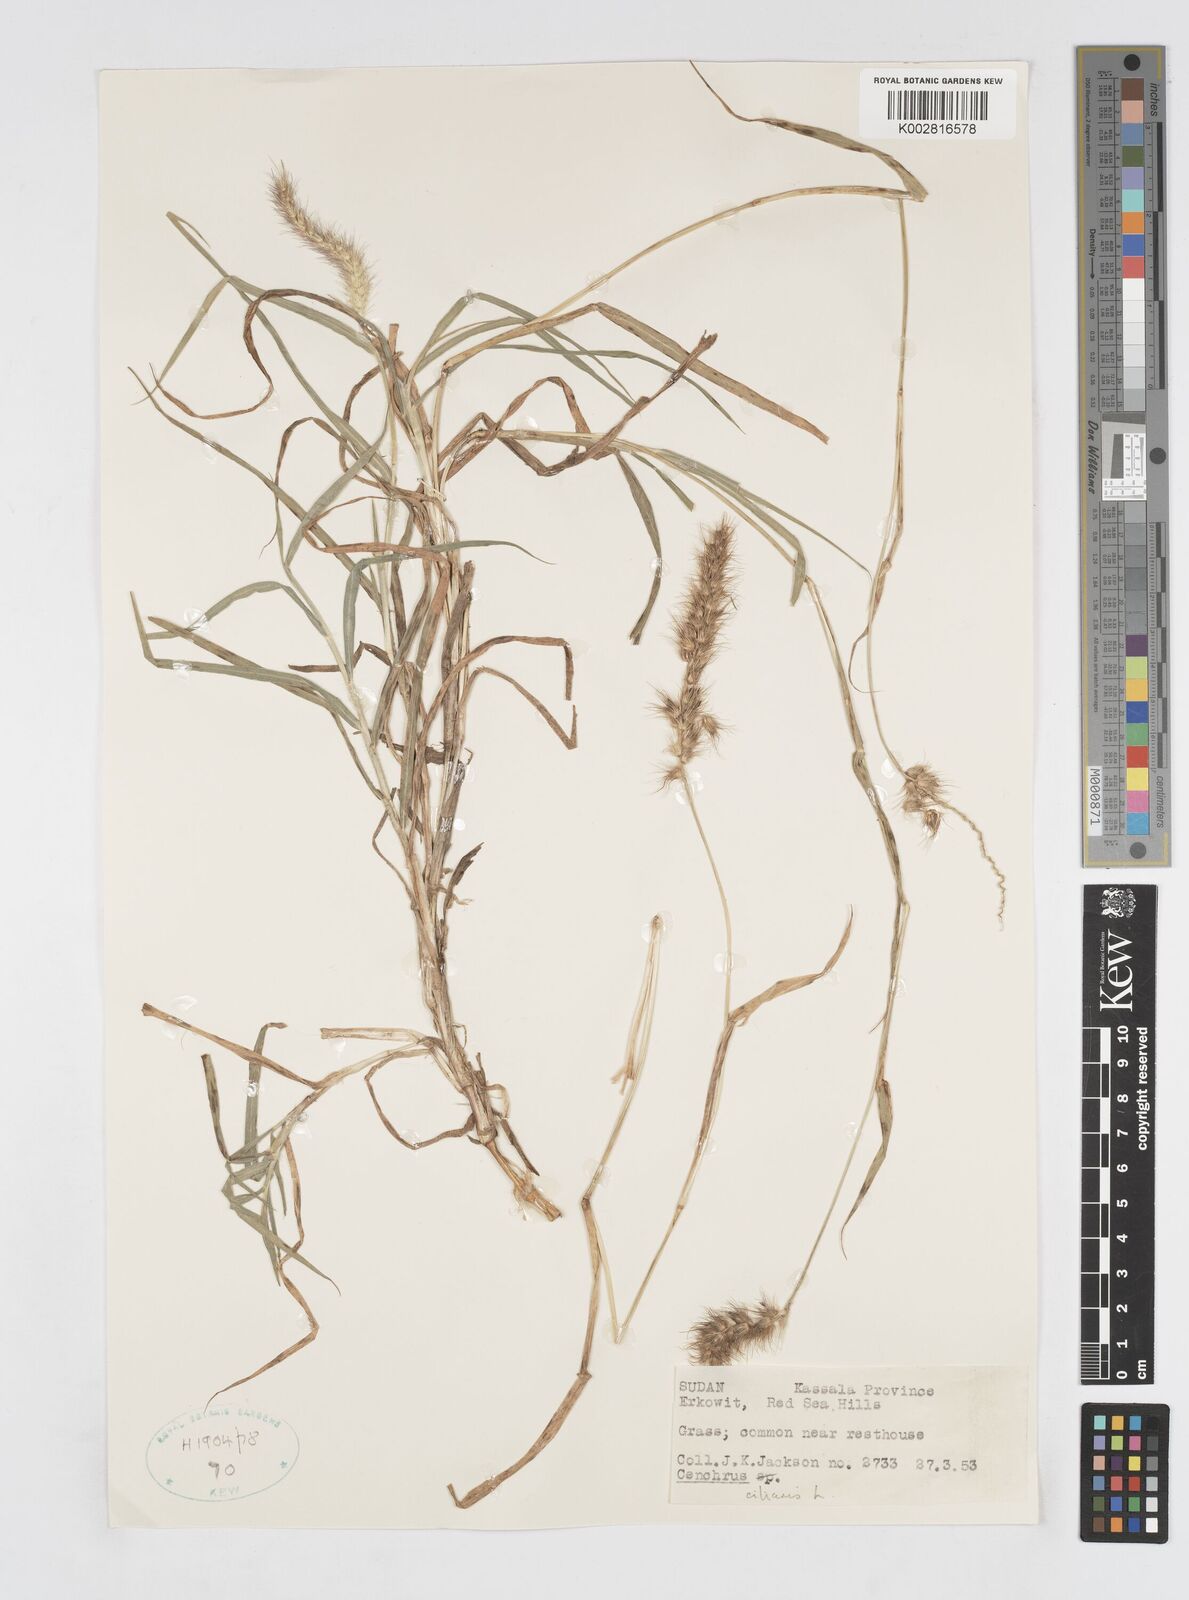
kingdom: Plantae
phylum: Tracheophyta
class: Liliopsida
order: Poales
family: Poaceae
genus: Cenchrus
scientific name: Cenchrus ciliaris
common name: Buffelgrass
